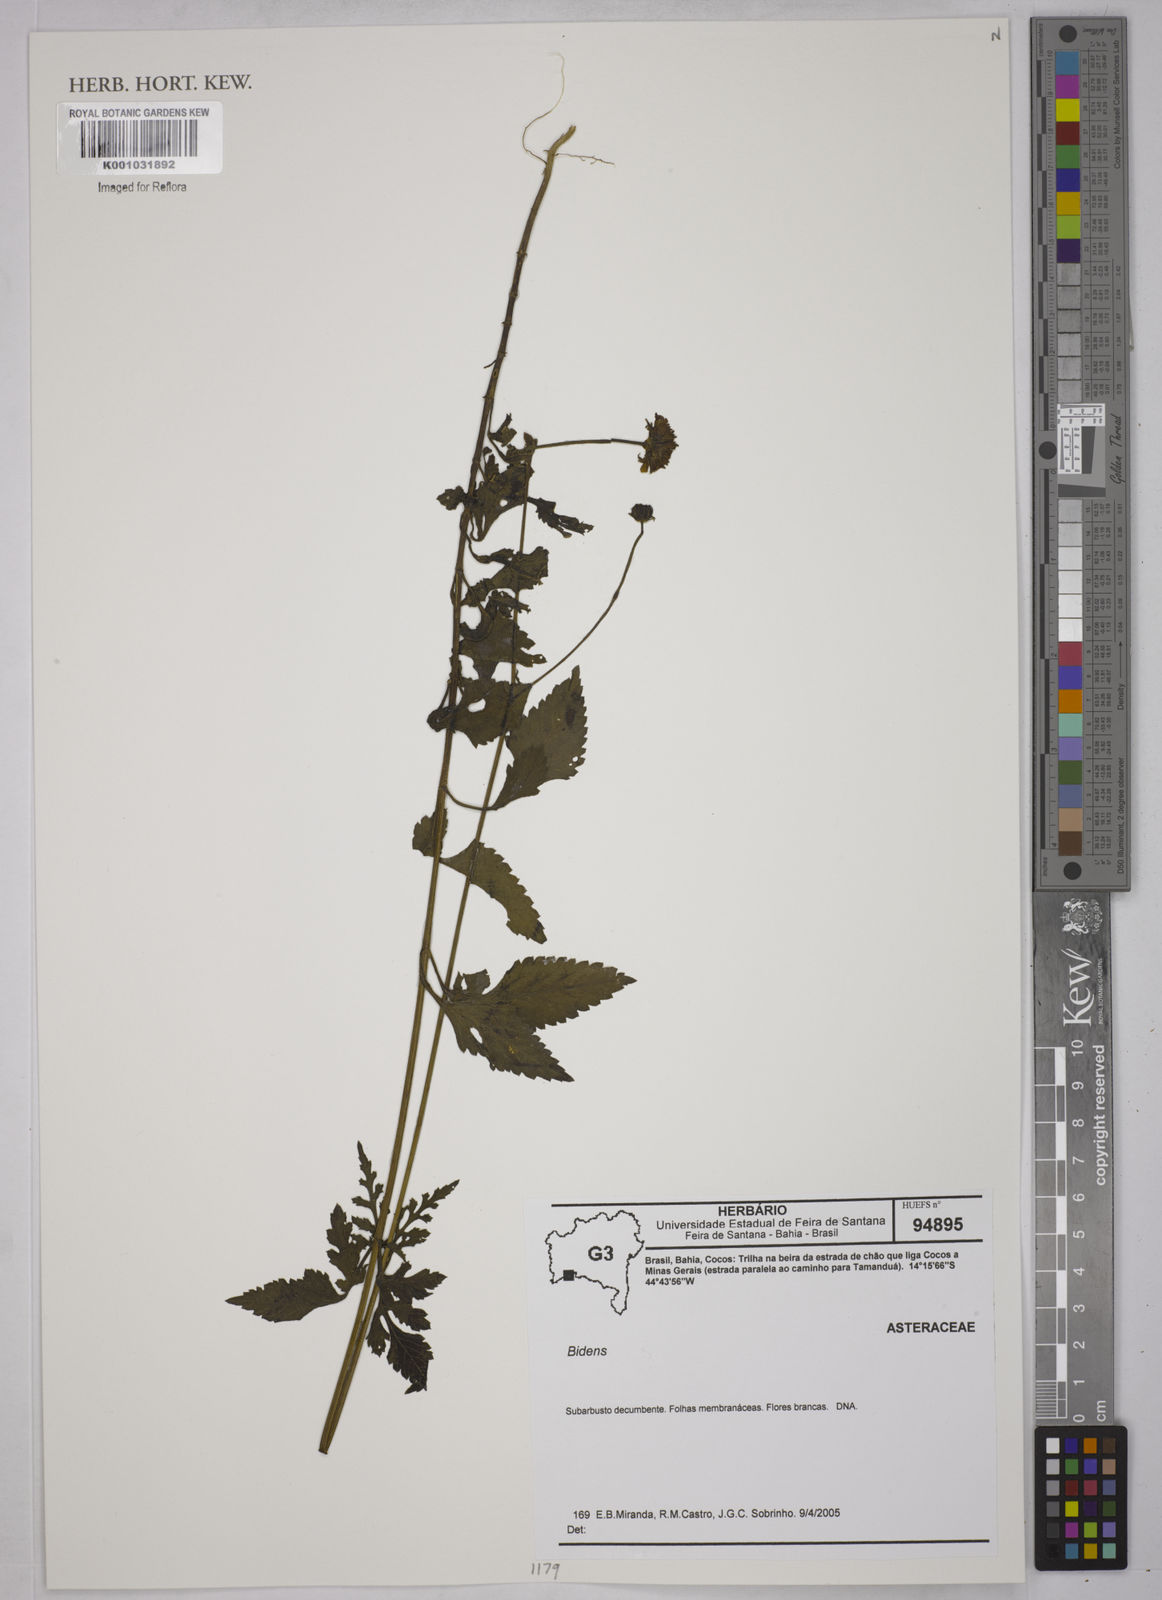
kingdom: Plantae
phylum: Tracheophyta
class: Magnoliopsida
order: Asterales
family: Asteraceae
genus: Bidens
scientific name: Bidens
